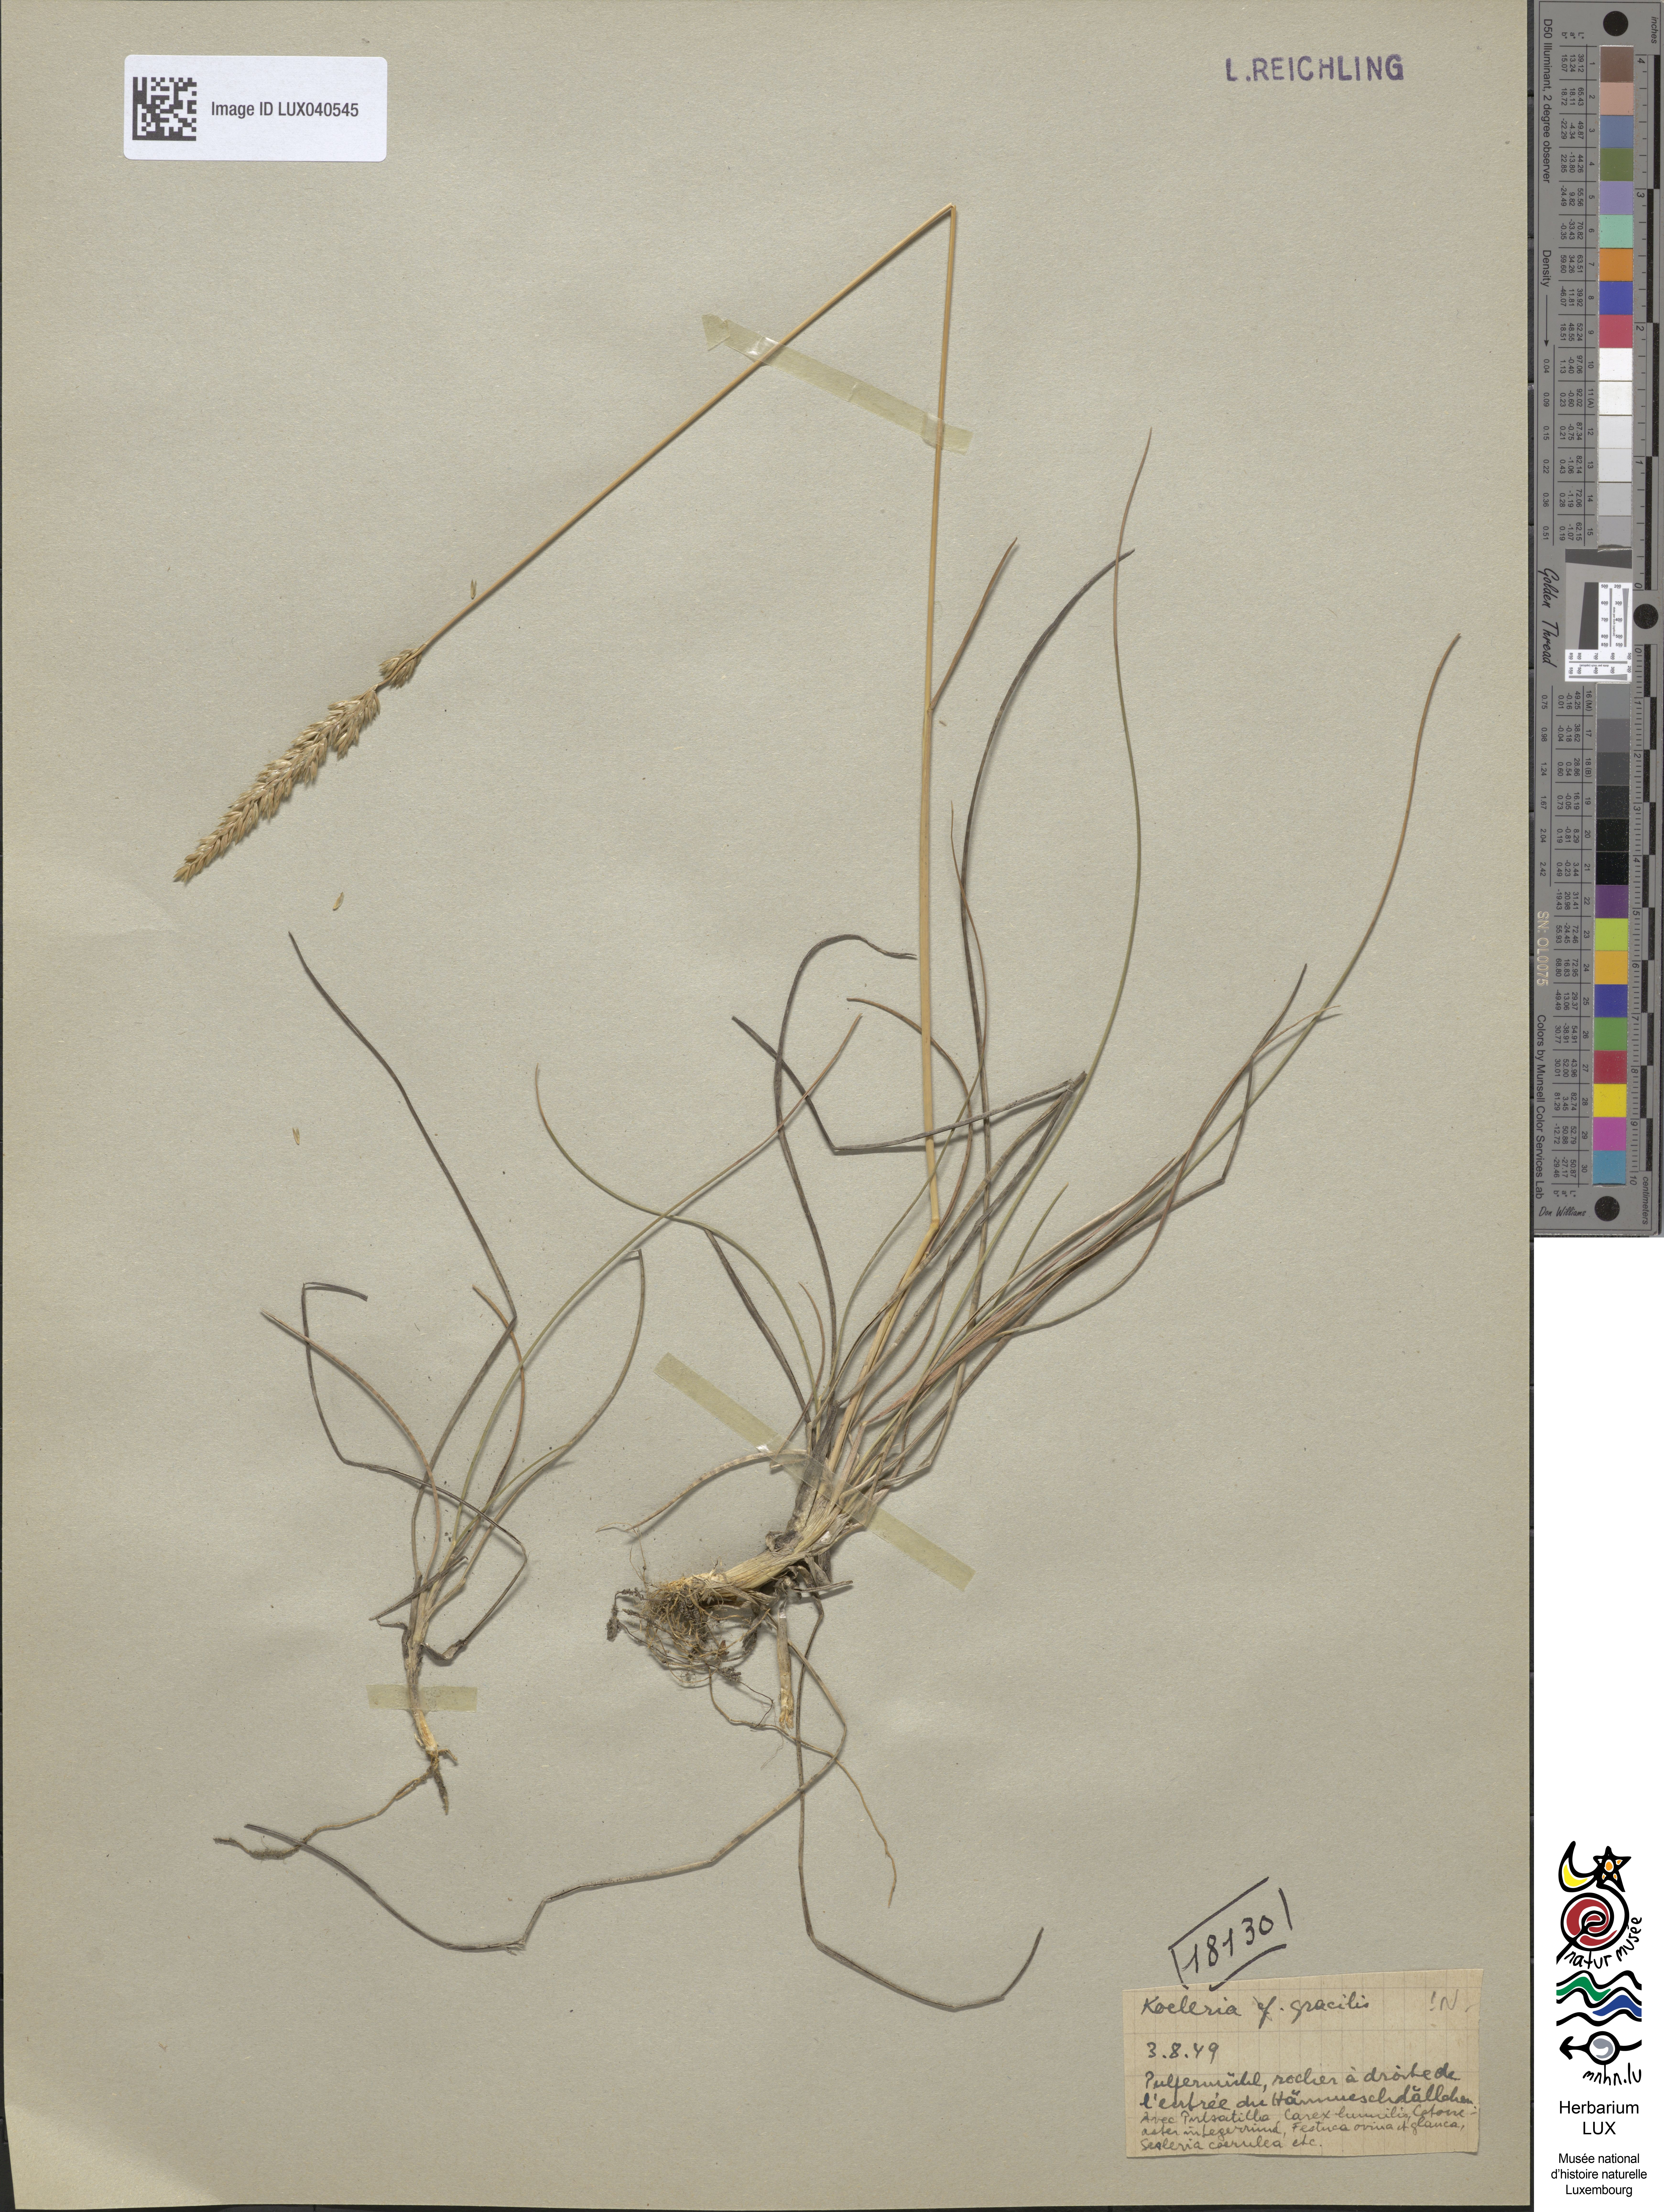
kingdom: Plantae
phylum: Tracheophyta
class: Liliopsida
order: Poales
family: Poaceae
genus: Koeleria
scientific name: Koeleria macrantha
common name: Crested hair-grass
